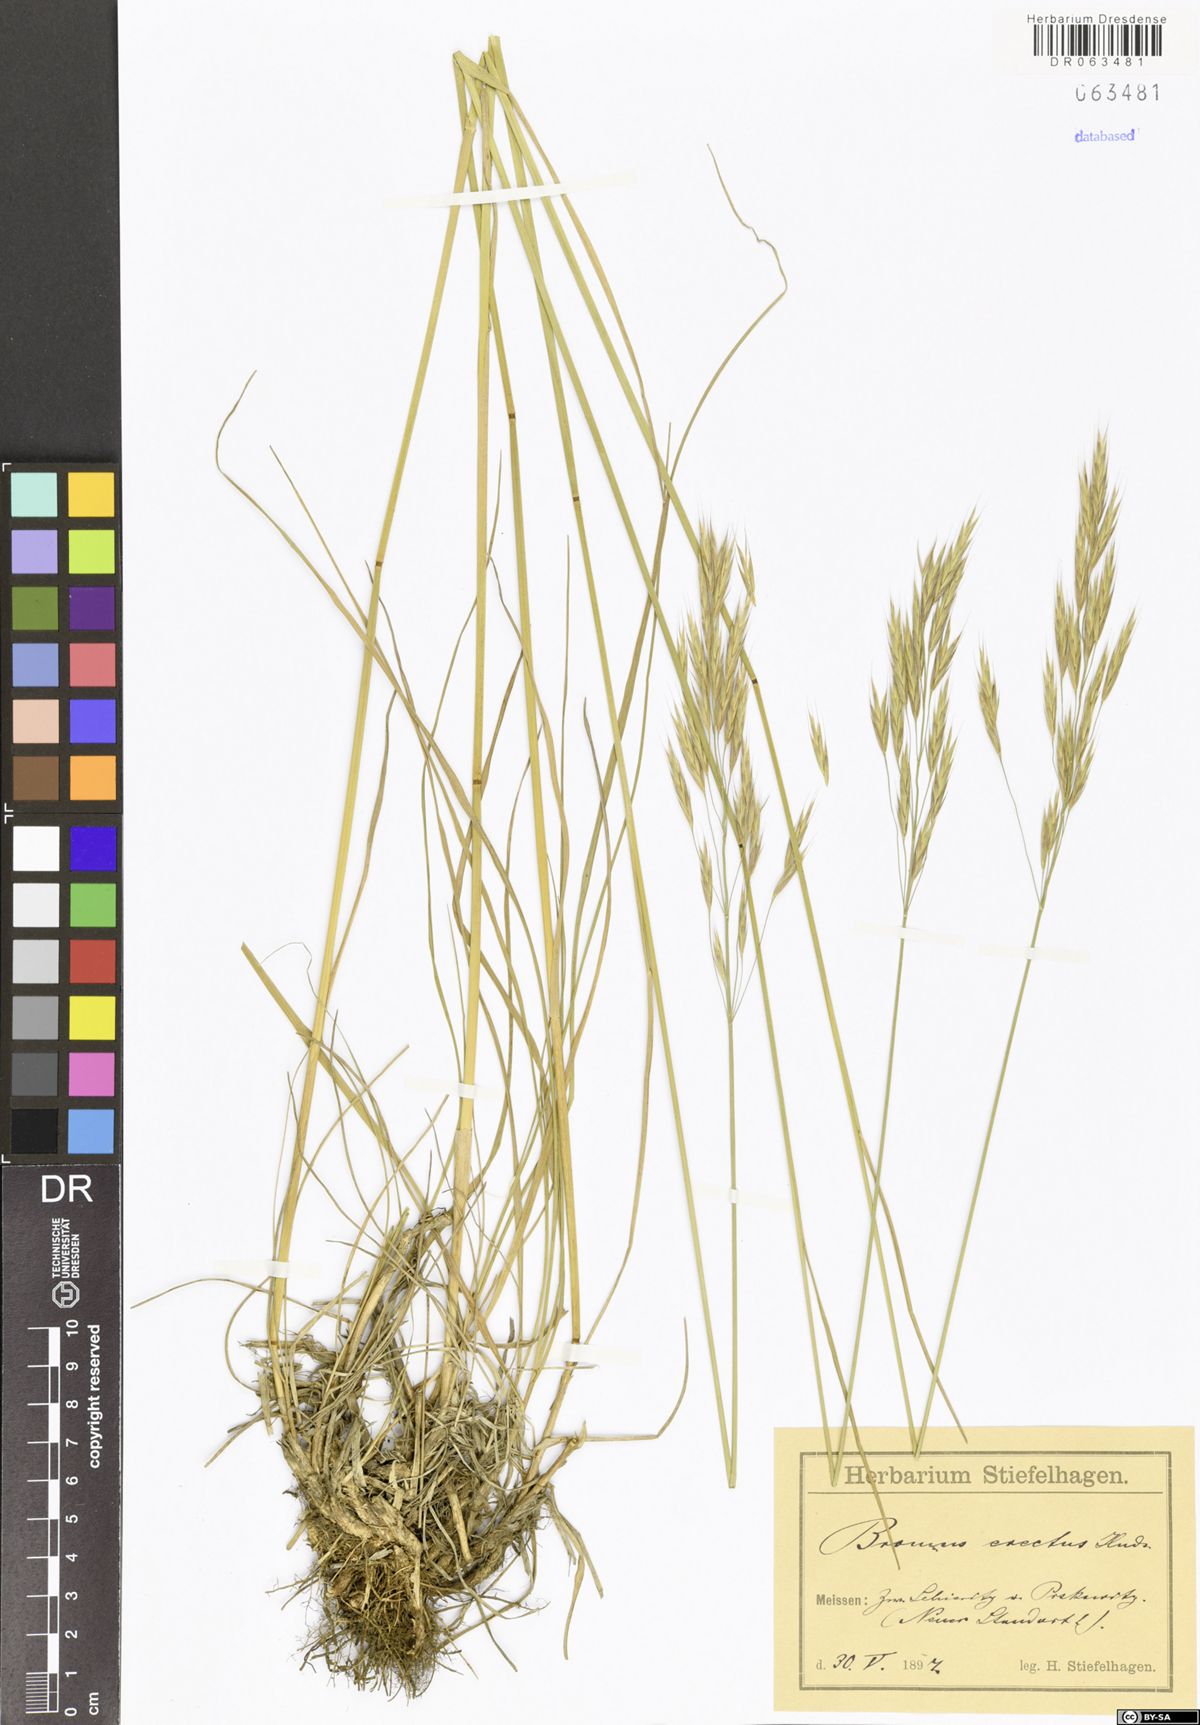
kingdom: Plantae
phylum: Tracheophyta
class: Liliopsida
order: Poales
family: Poaceae
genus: Bromus
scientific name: Bromus erectus
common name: Erect brome
